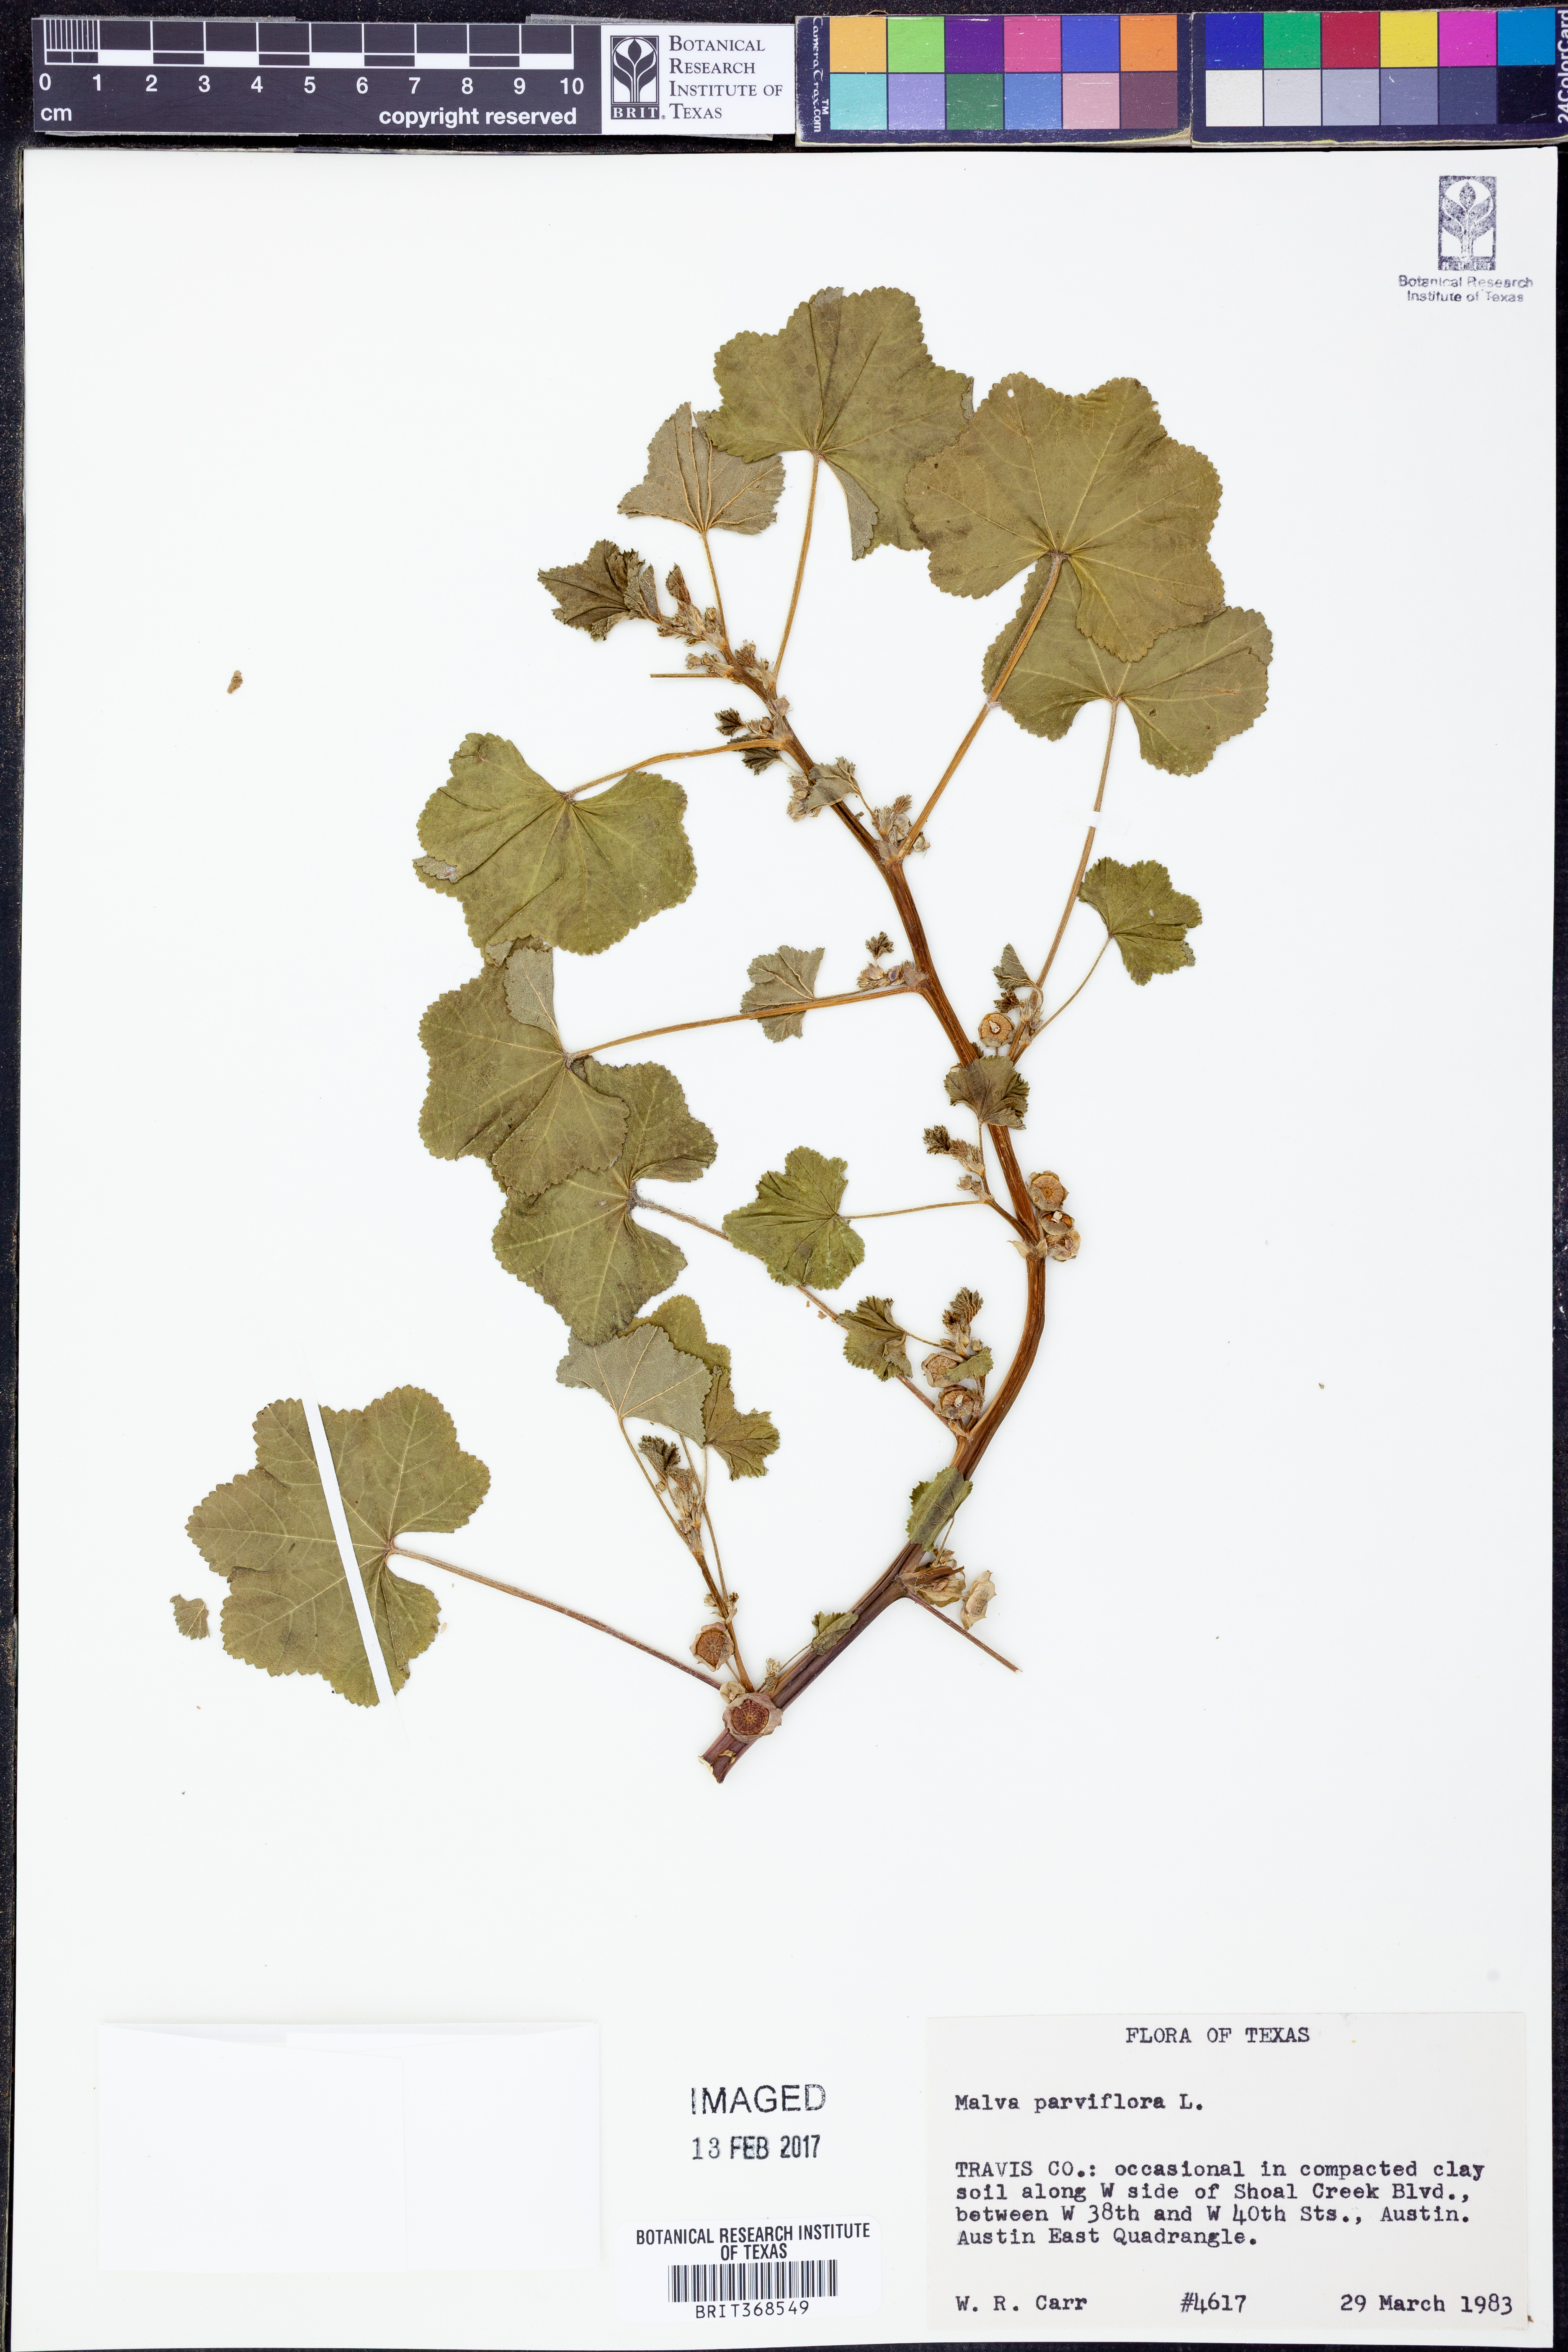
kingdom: Plantae
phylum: Tracheophyta
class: Magnoliopsida
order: Malvales
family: Malvaceae
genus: Malva
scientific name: Malva parviflora
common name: Least mallow
